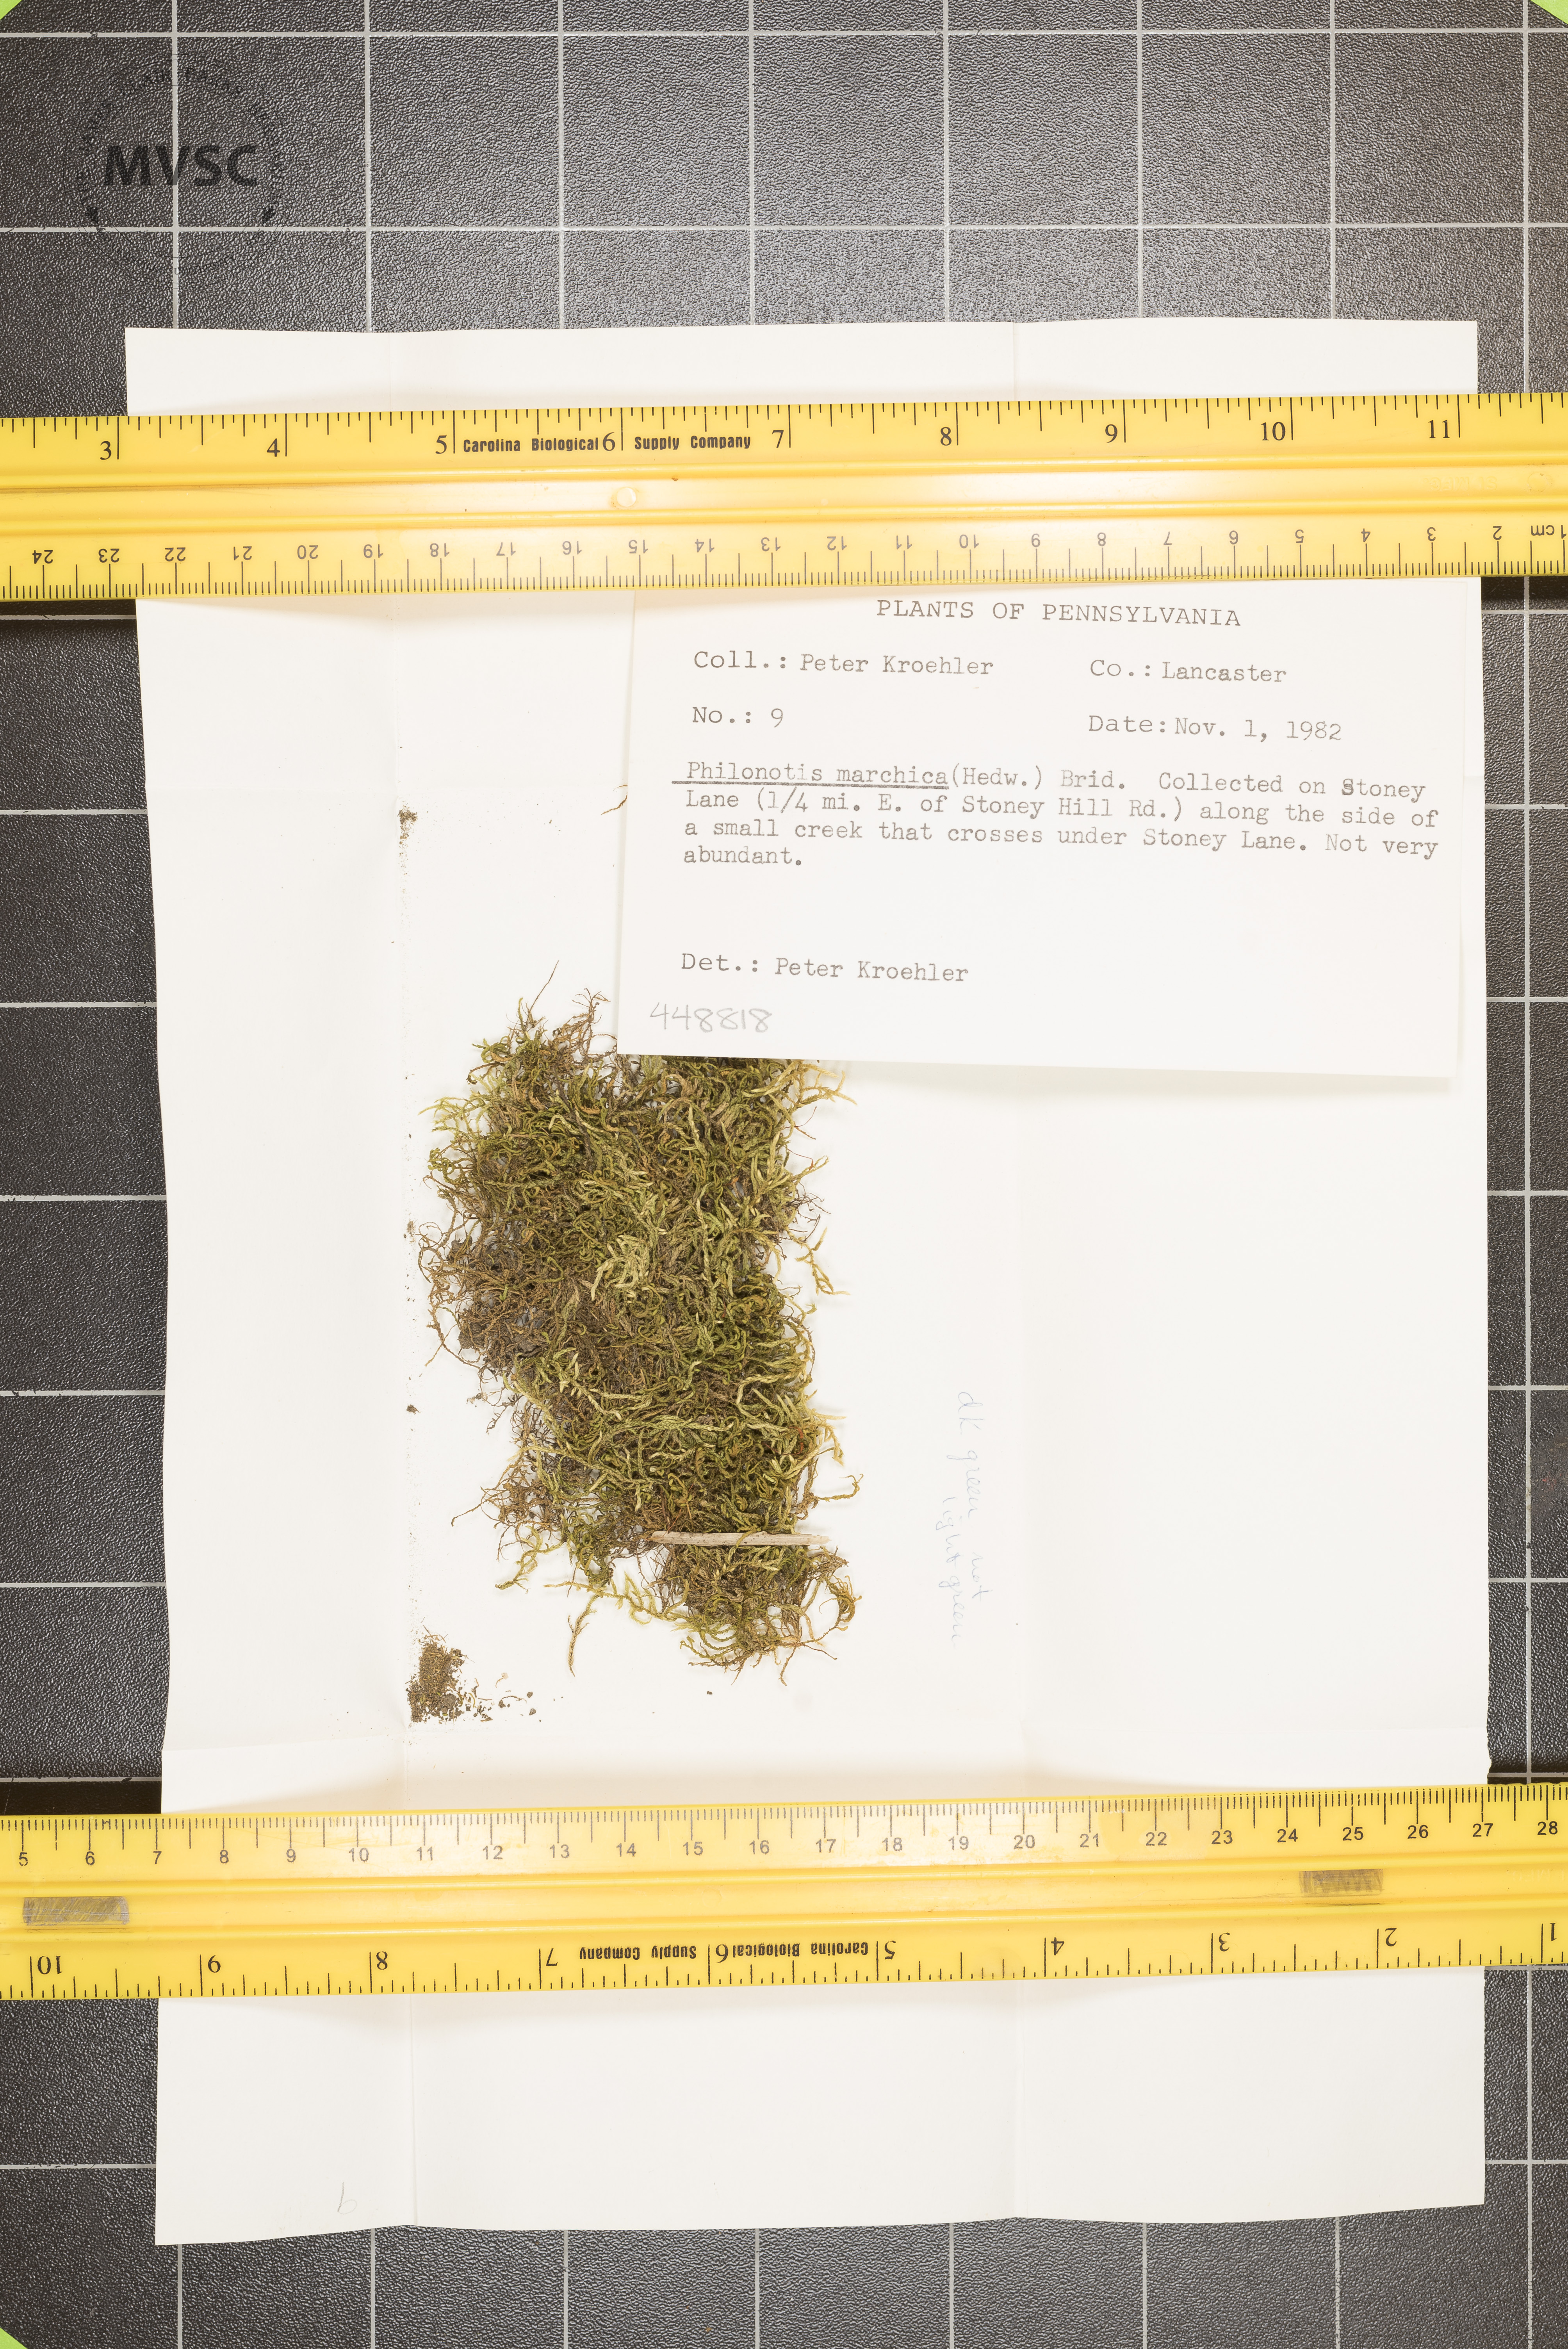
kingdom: Plantae
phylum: Bryophyta
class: Bryopsida
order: Bartramiales
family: Bartramiaceae
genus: Philonotis
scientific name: Philonotis marchica
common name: Bog apple moss
